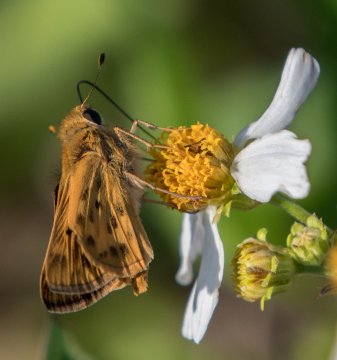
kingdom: Animalia
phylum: Arthropoda
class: Insecta
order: Lepidoptera
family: Hesperiidae
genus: Hylephila
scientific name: Hylephila phyleus
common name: Fiery Skipper
